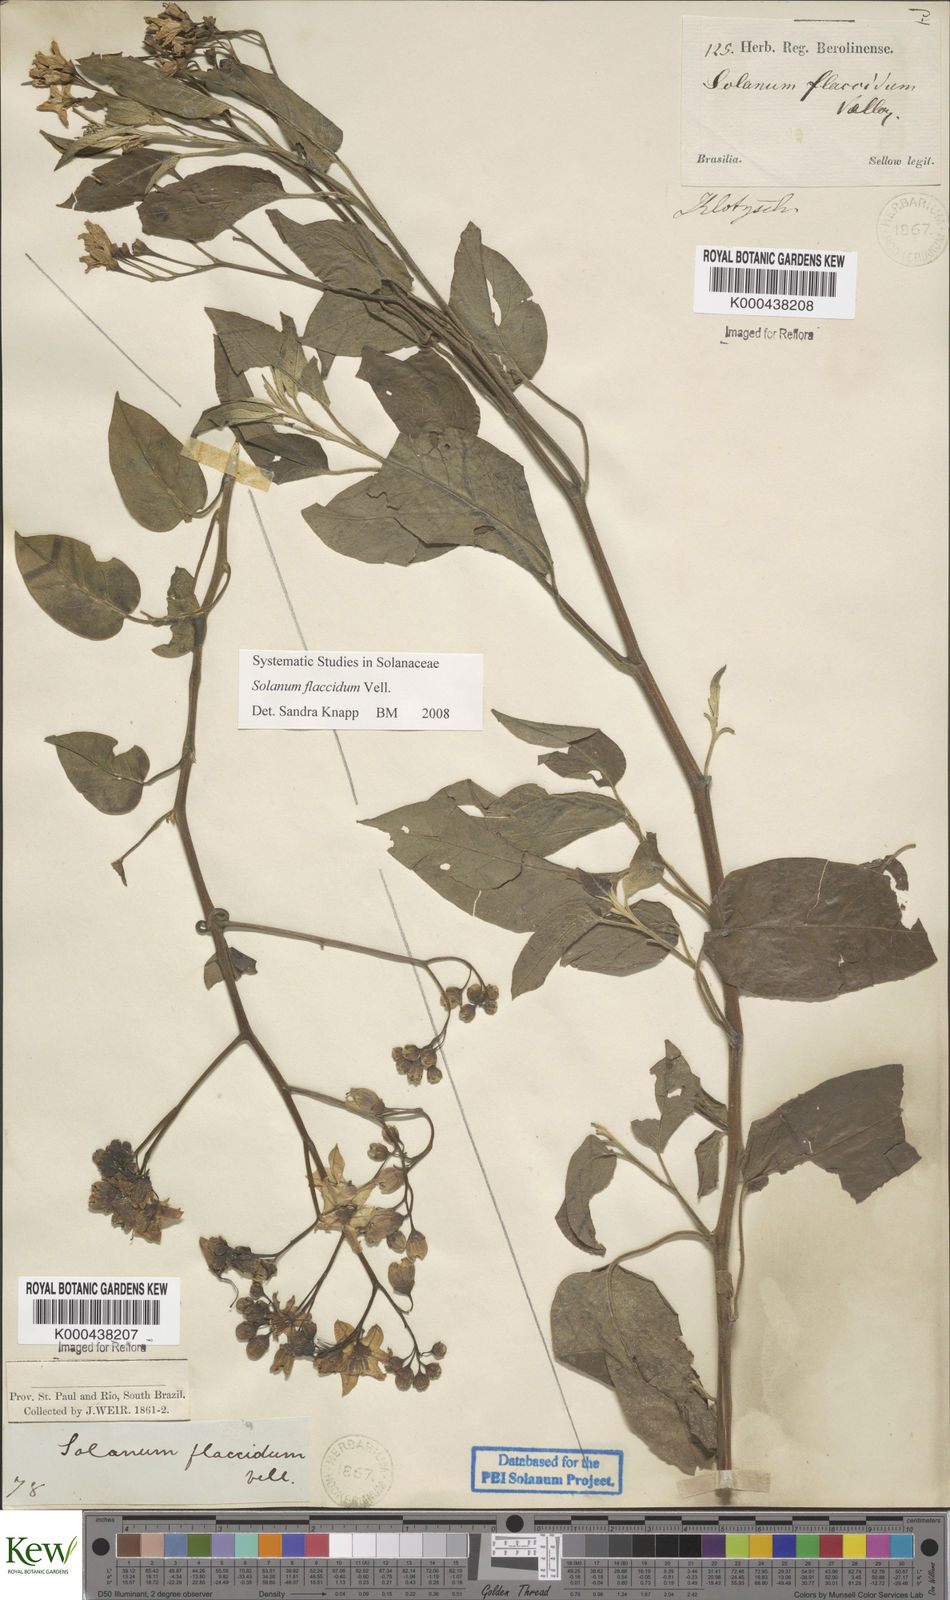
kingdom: Plantae
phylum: Tracheophyta
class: Magnoliopsida
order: Solanales
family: Solanaceae
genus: Solanum
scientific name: Solanum flaccidum
